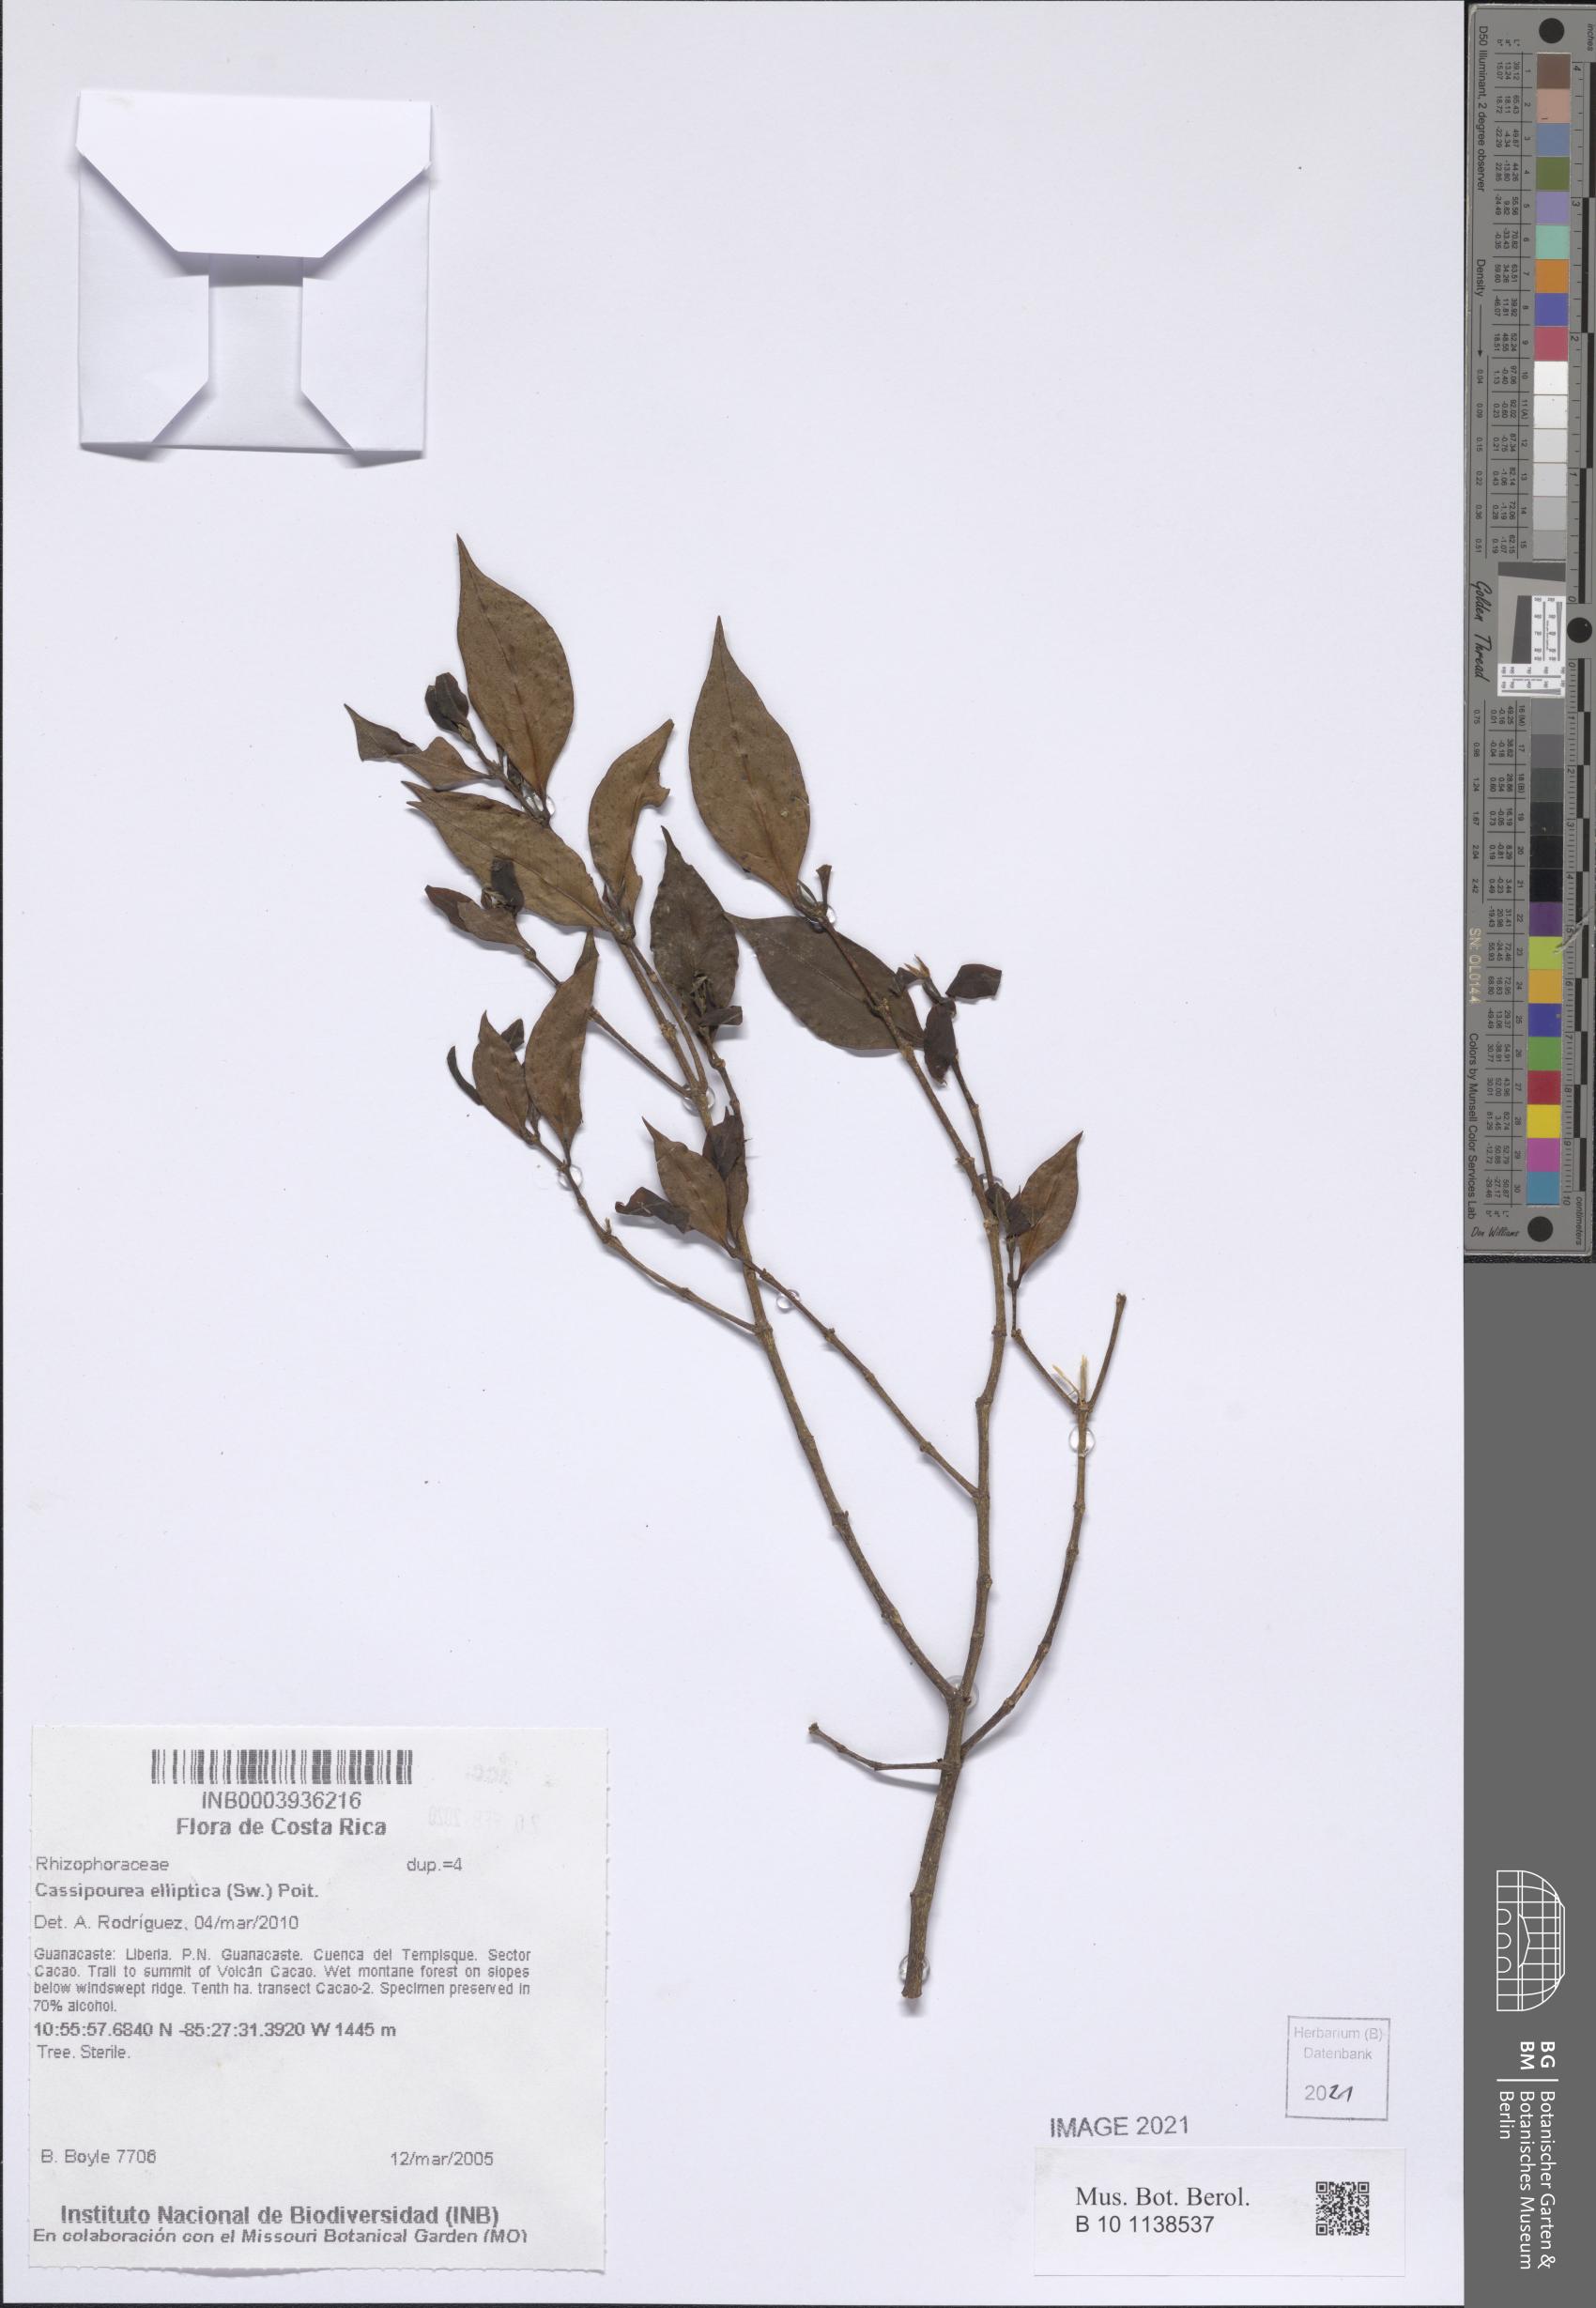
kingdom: Plantae
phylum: Tracheophyta
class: Magnoliopsida
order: Malpighiales
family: Rhizophoraceae
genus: Cassipourea
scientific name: Cassipourea elliptica
